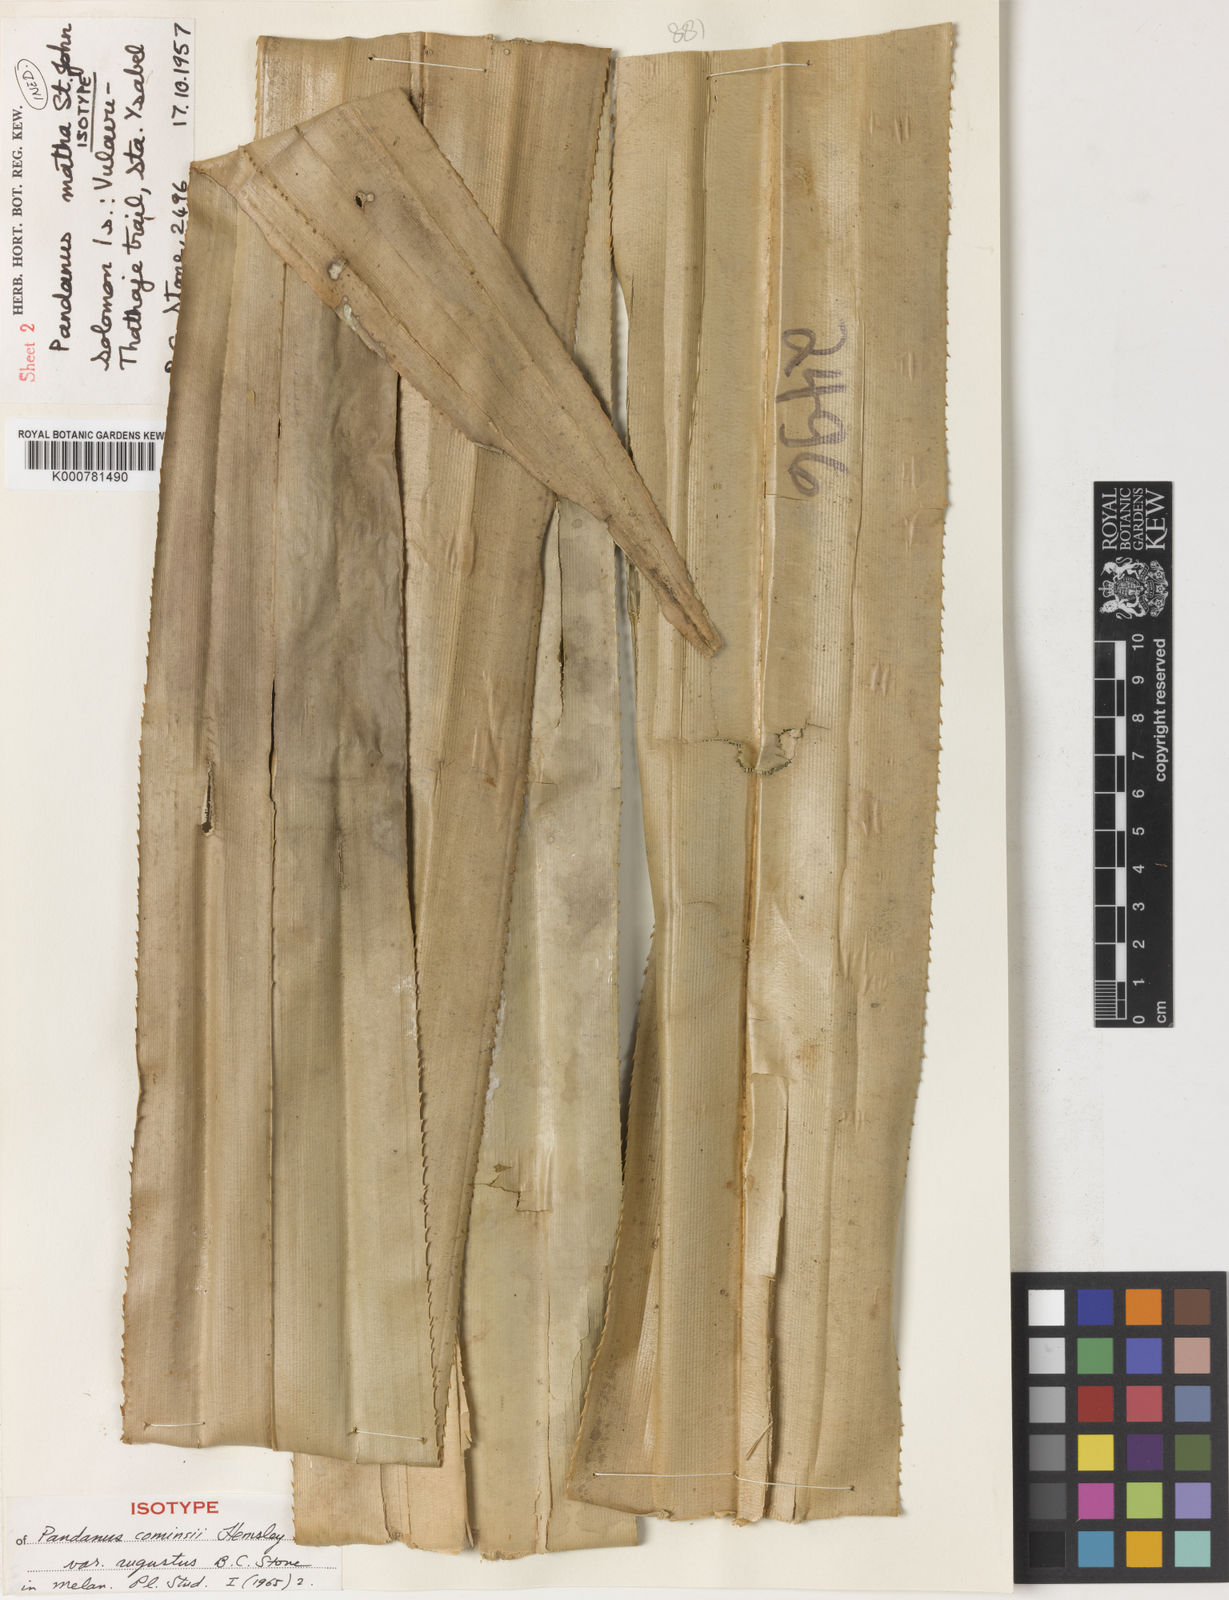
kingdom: Plantae
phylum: Tracheophyta
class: Liliopsida
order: Pandanales
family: Pandanaceae
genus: Pandanus
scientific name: Pandanus conoideus
